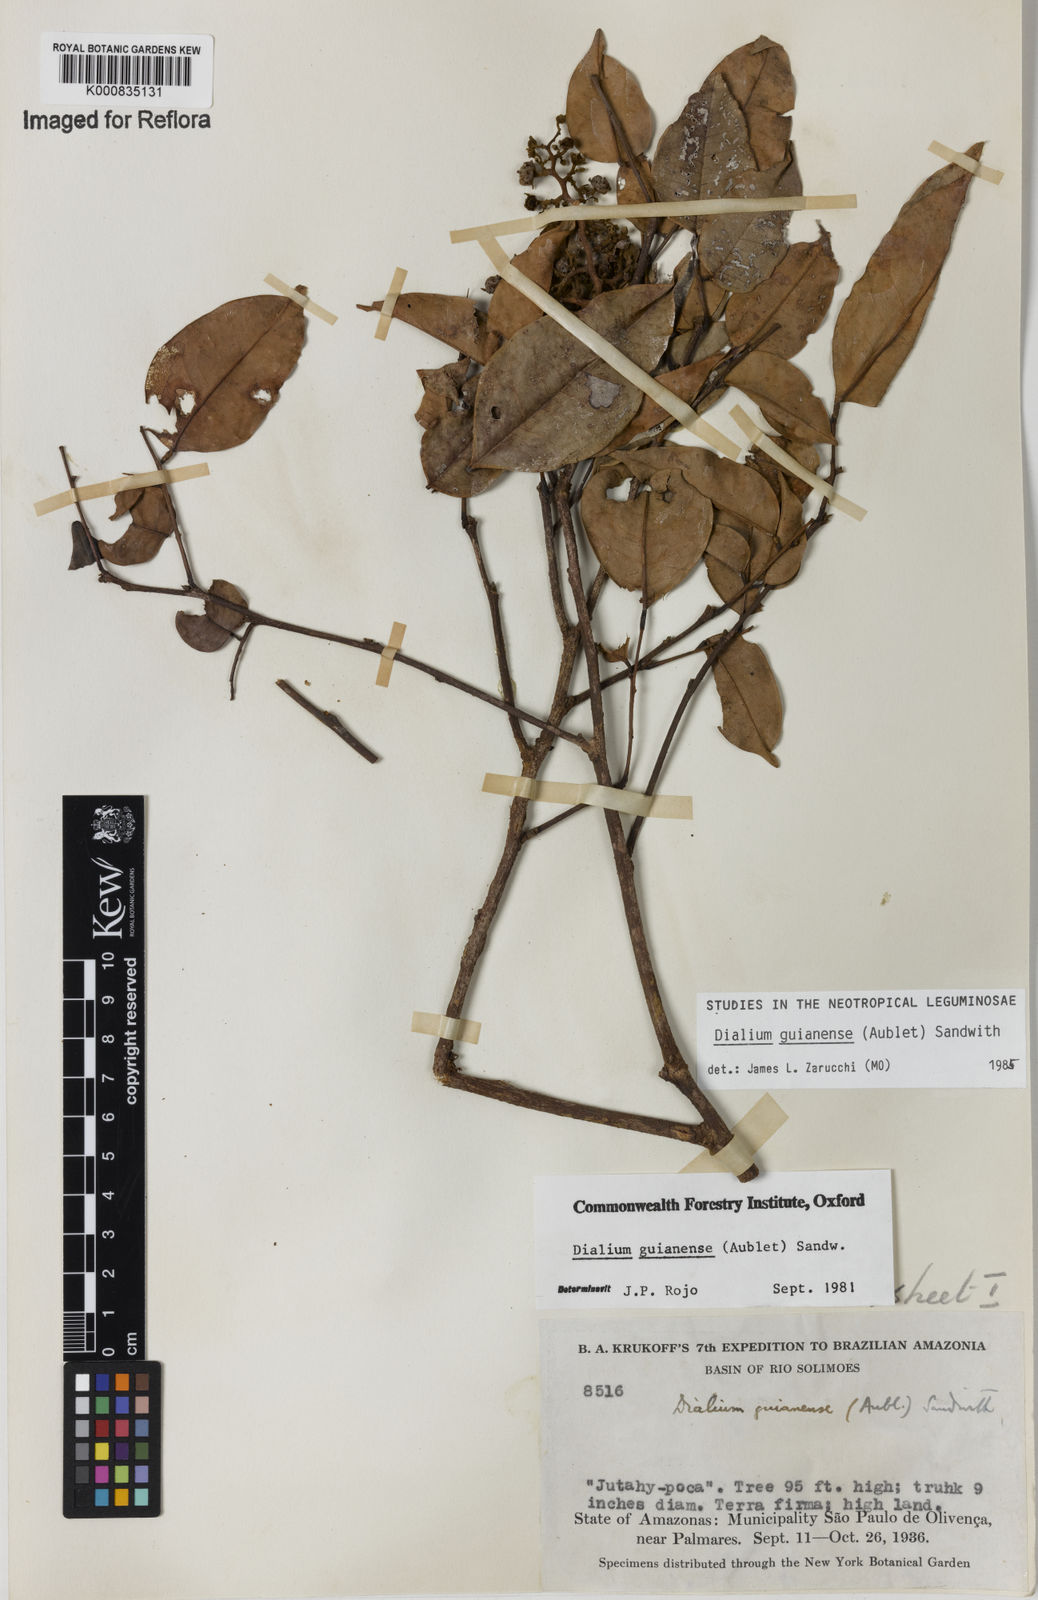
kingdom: Plantae
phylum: Tracheophyta
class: Magnoliopsida
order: Fabales
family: Fabaceae
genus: Dialium
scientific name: Dialium guianense
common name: Ironwood
